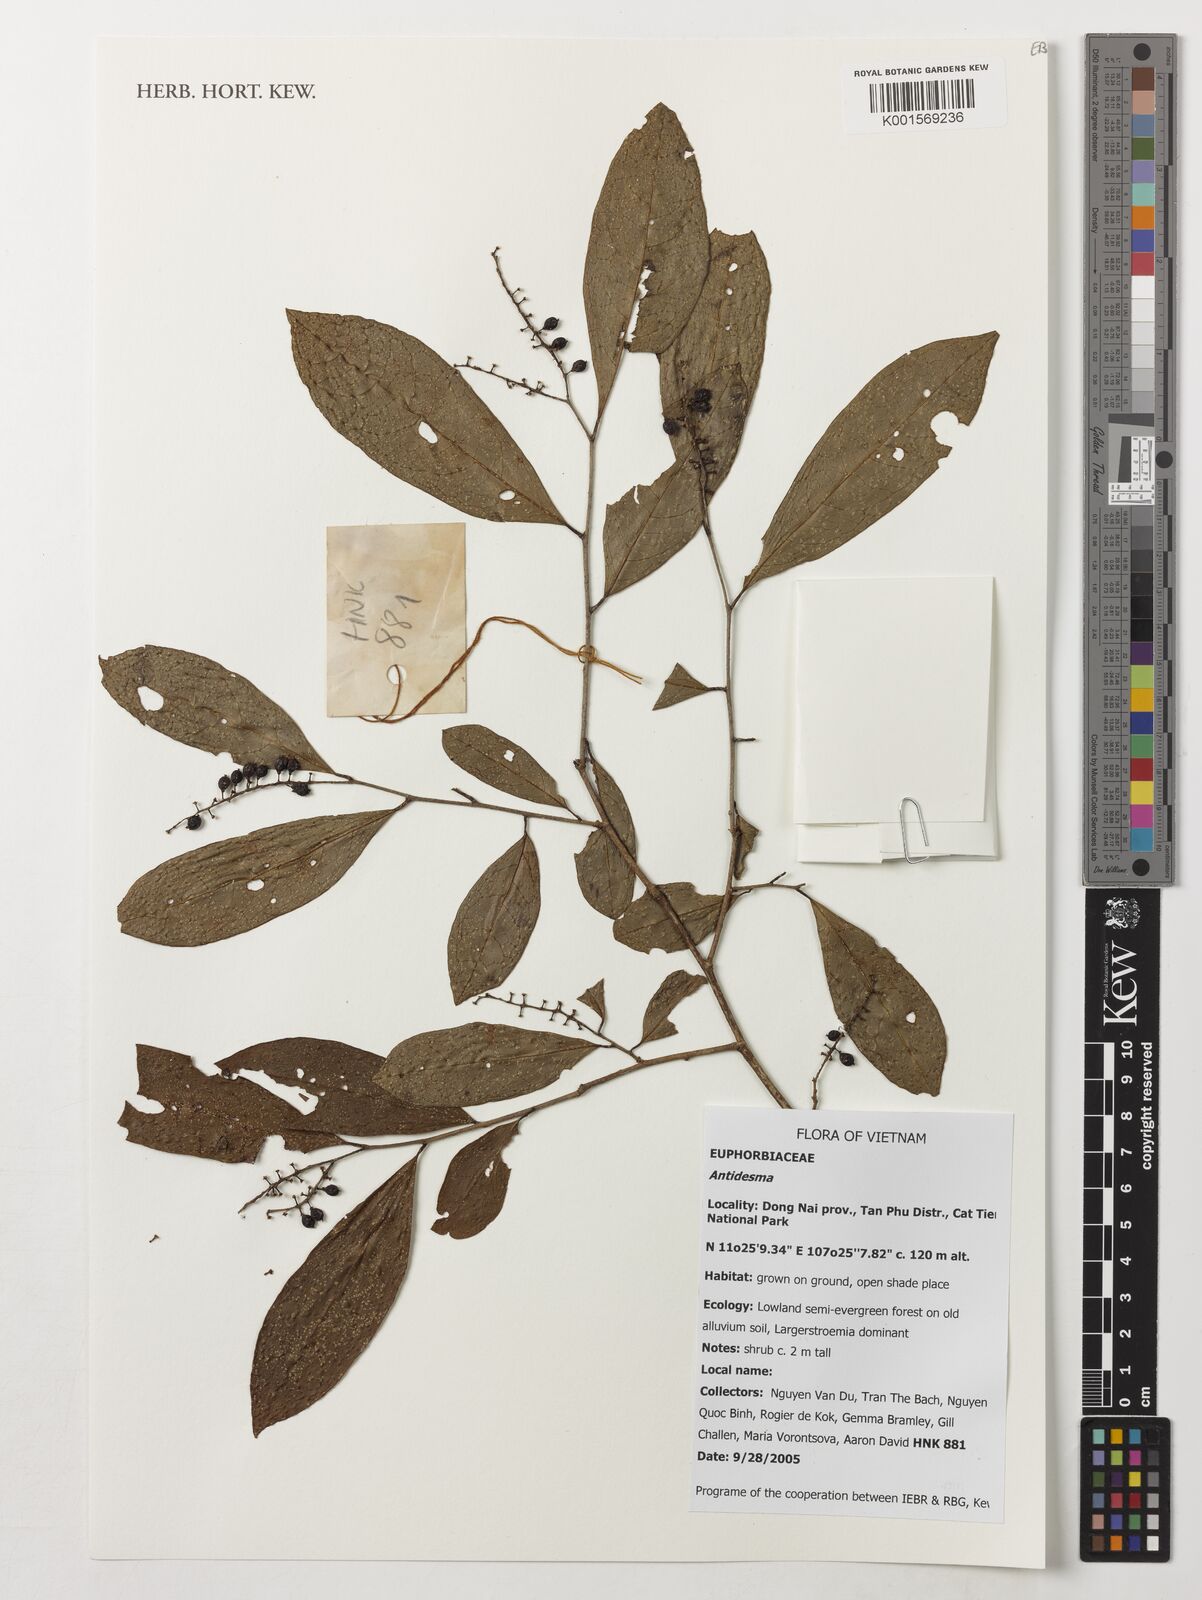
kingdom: Plantae
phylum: Tracheophyta
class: Magnoliopsida
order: Malpighiales
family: Phyllanthaceae
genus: Antidesma
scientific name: Antidesma
